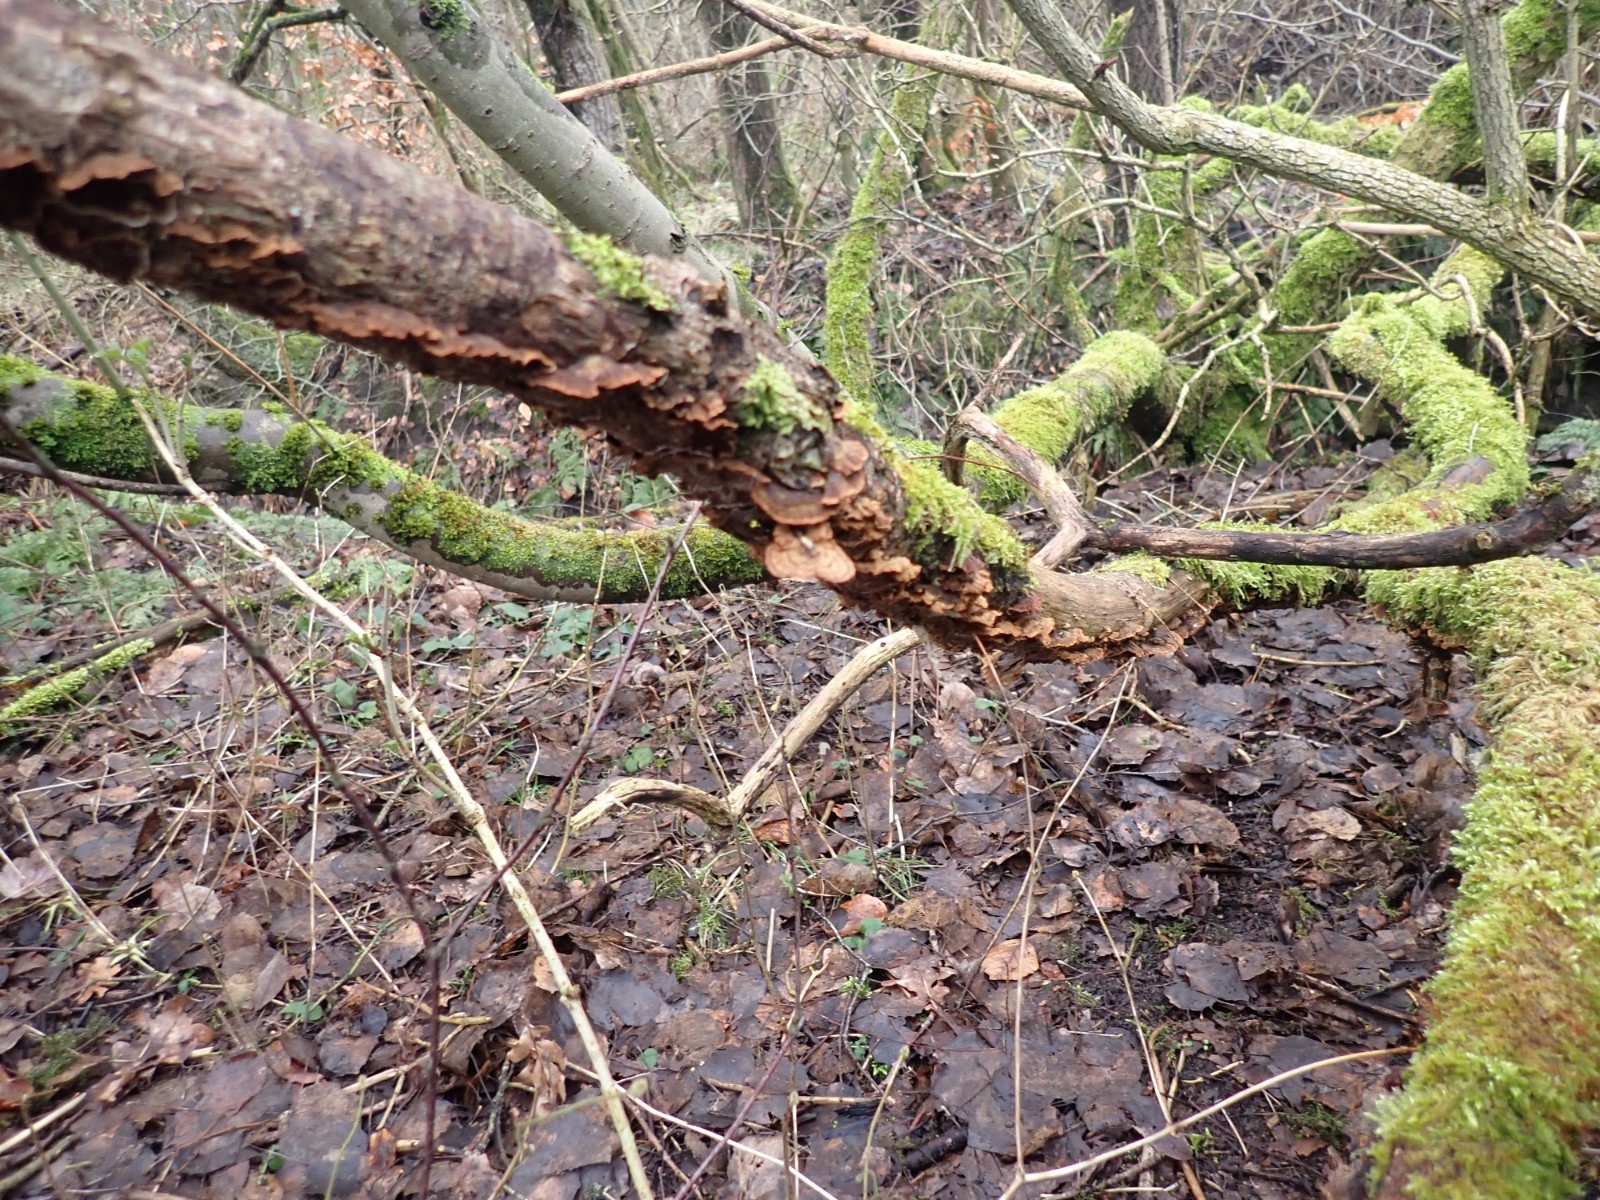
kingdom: Fungi
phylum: Basidiomycota
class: Agaricomycetes
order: Hymenochaetales
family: Hymenochaetaceae
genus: Hydnoporia
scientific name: Hydnoporia tabacina
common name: tobaksbrun ruslædersvamp
